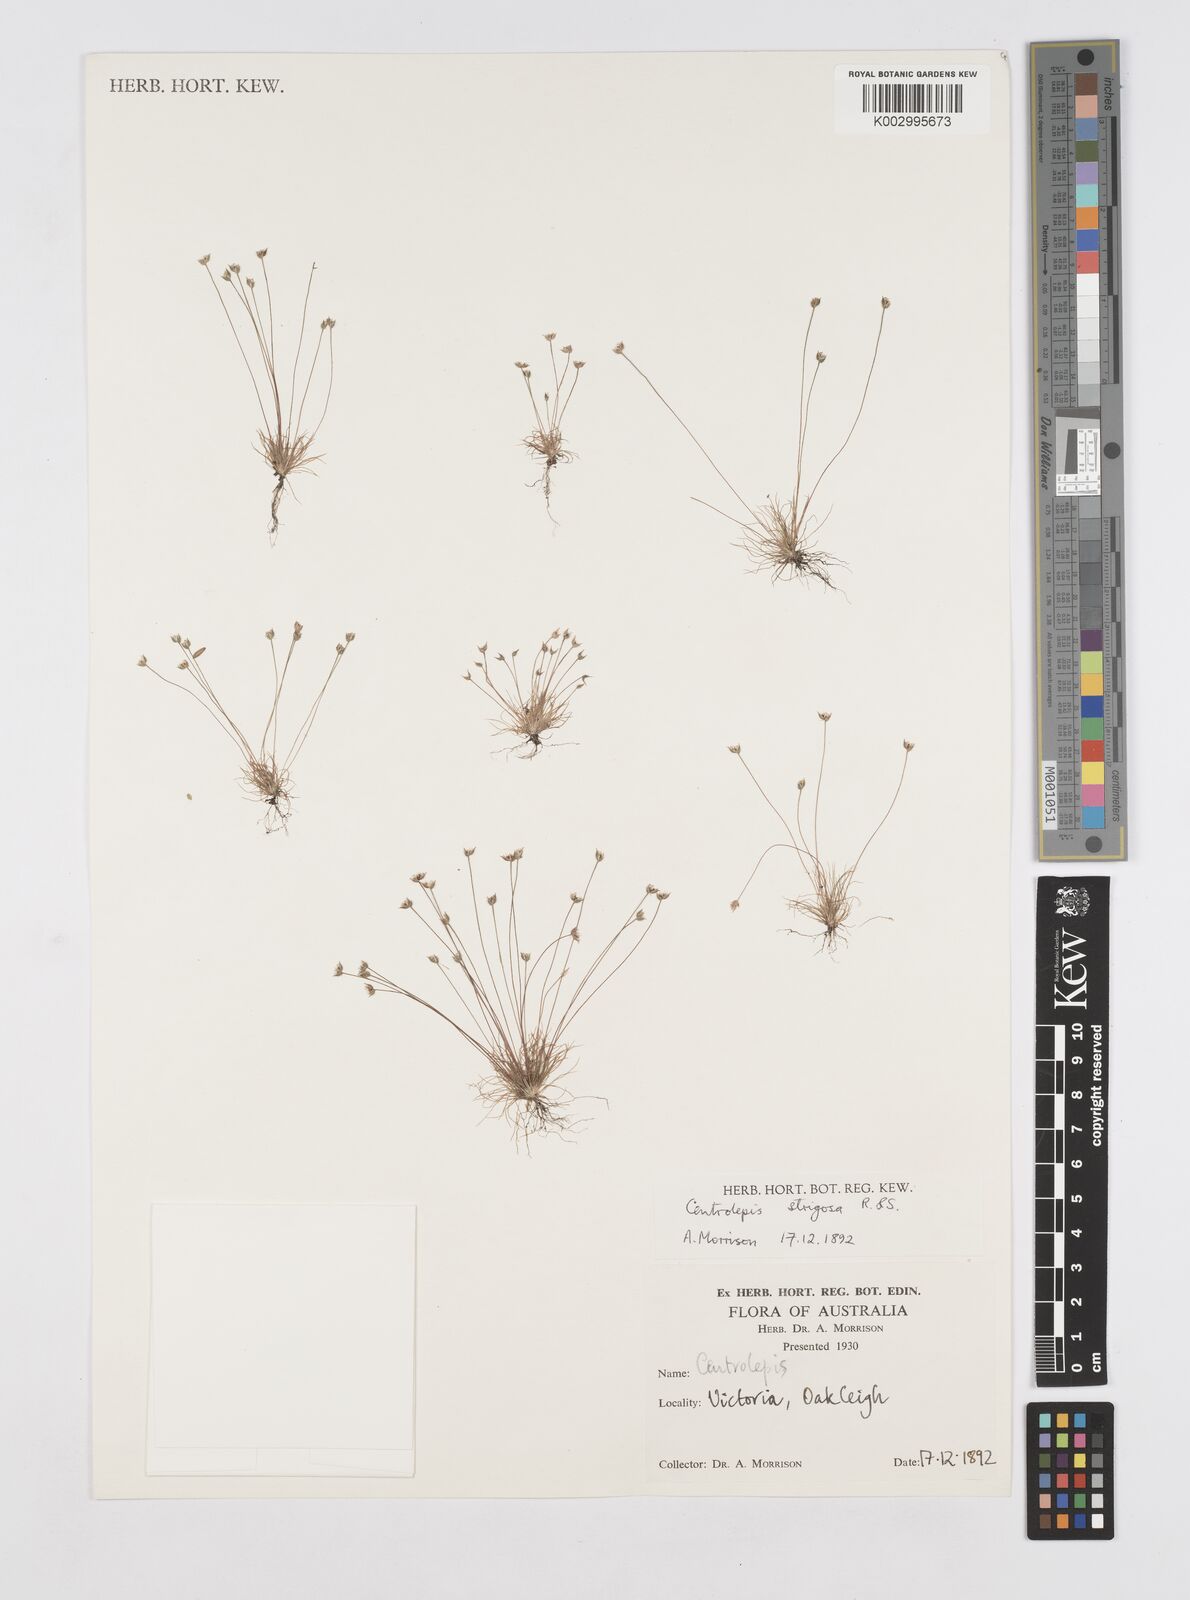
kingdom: Plantae
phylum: Tracheophyta
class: Liliopsida
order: Poales
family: Restionaceae
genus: Centrolepis
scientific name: Centrolepis strigosa
